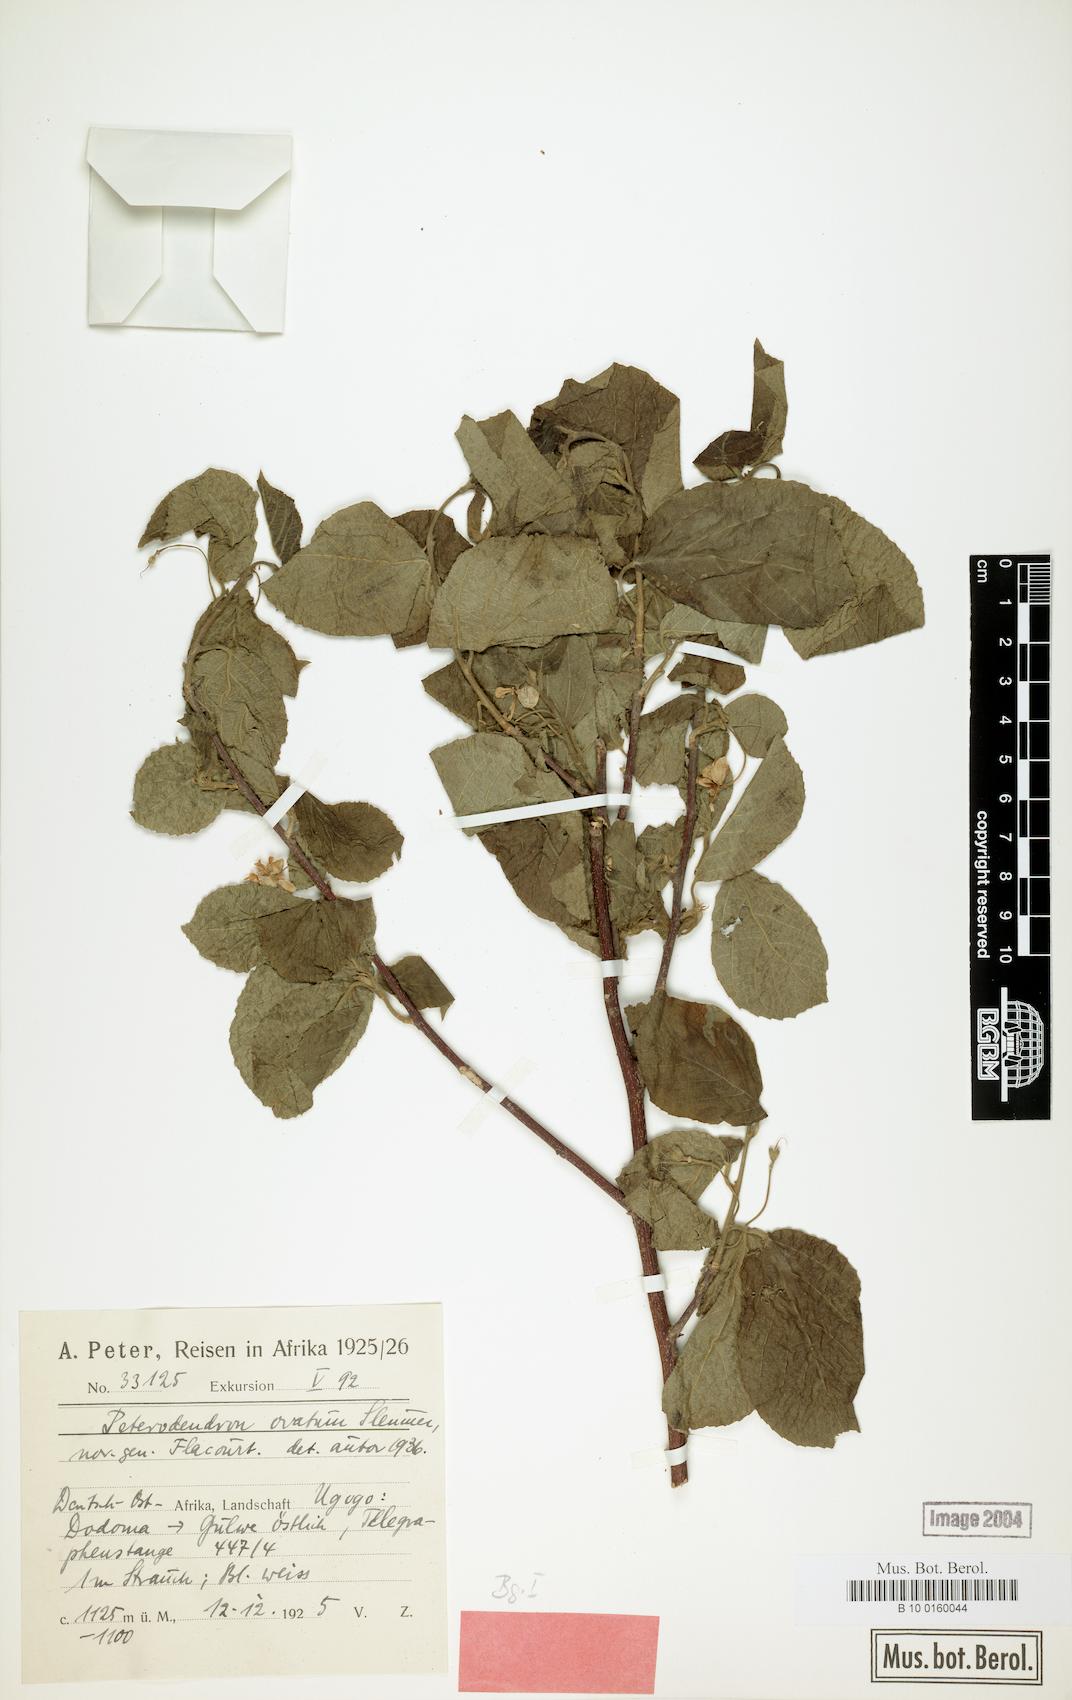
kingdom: Plantae
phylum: Tracheophyta
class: Magnoliopsida
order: Malpighiales
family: Achariaceae
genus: Peterodendron
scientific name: Peterodendron ovatum
